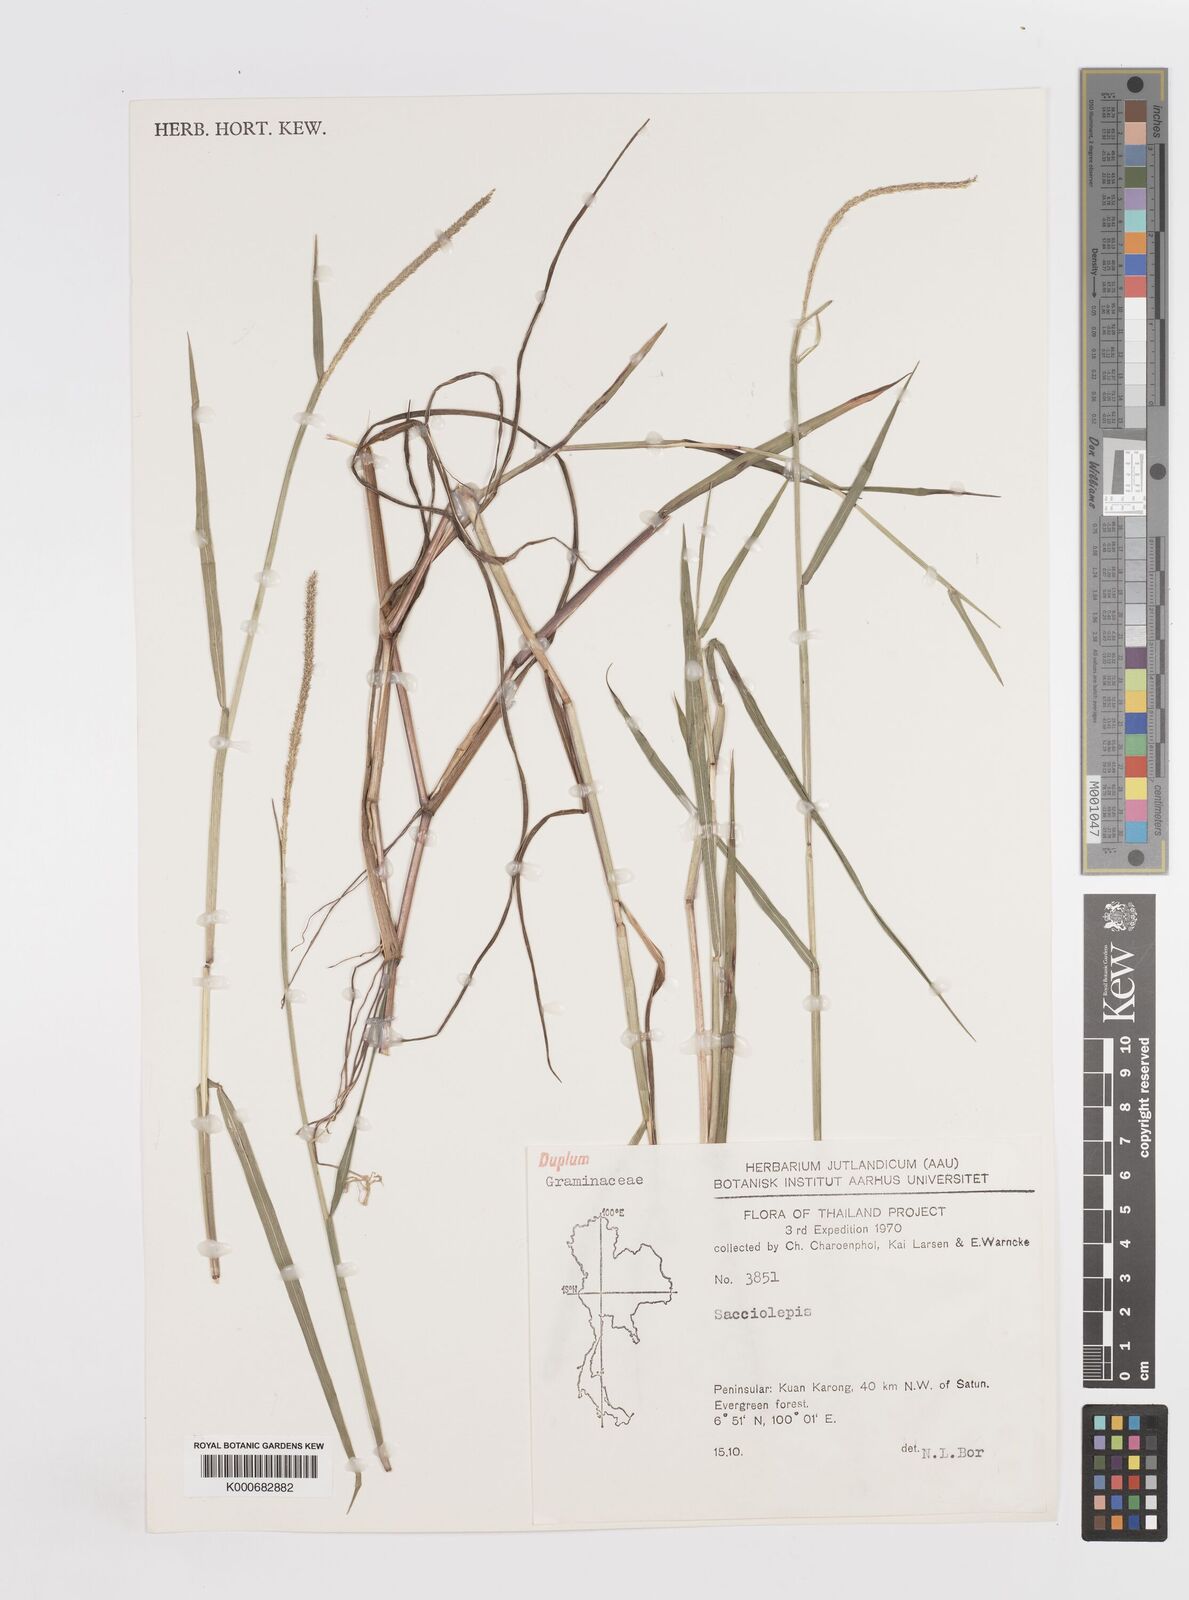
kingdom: Plantae
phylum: Tracheophyta
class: Liliopsida
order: Poales
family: Poaceae
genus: Sacciolepis
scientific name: Sacciolepis myosuroides
